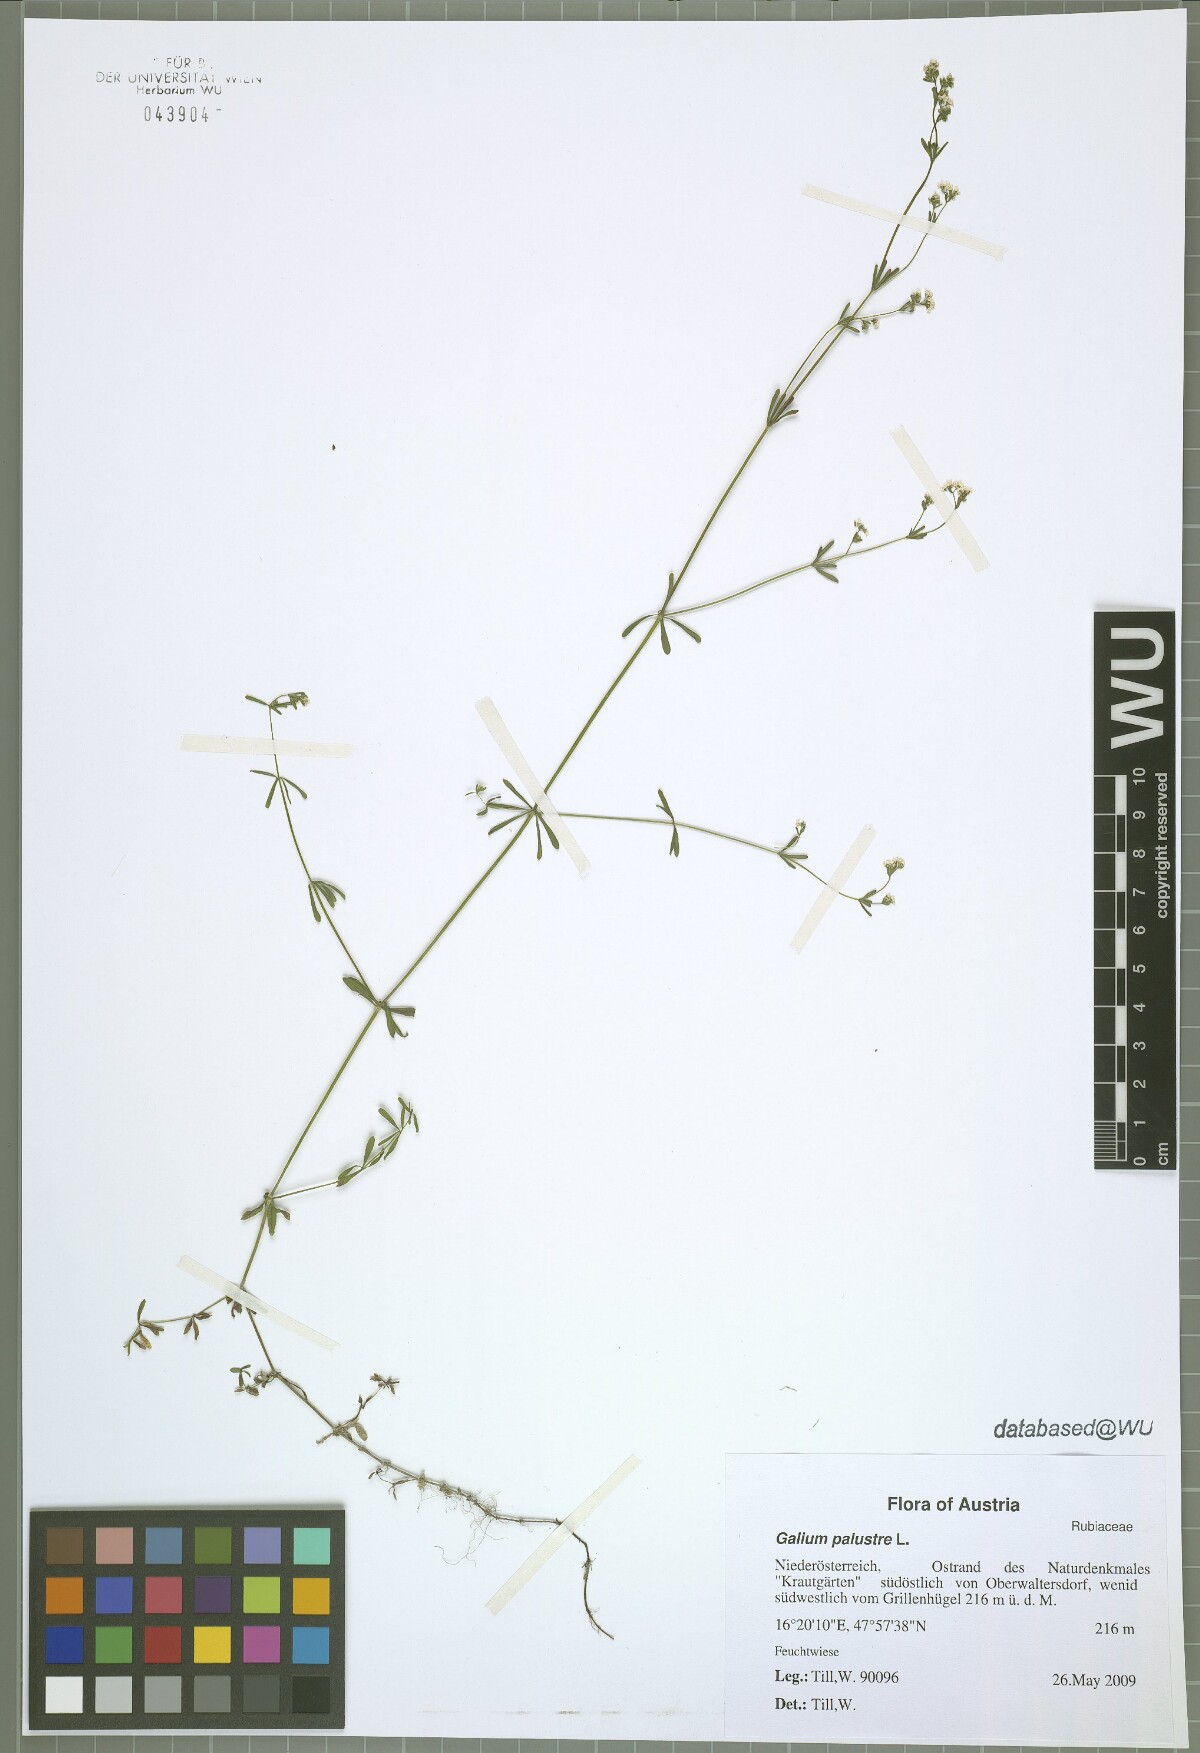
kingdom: Plantae
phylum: Tracheophyta
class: Magnoliopsida
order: Gentianales
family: Rubiaceae
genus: Galium
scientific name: Galium palustre
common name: Common marsh-bedstraw
